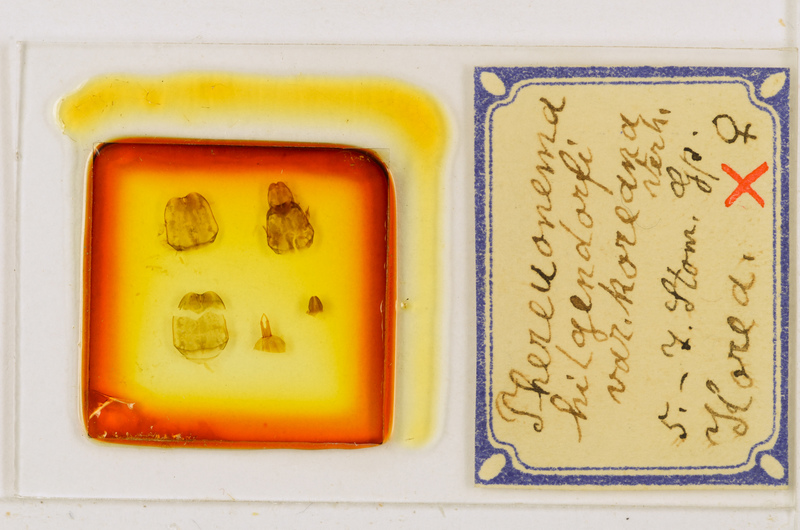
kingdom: Animalia
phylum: Arthropoda
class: Chilopoda
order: Scutigeromorpha
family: Scutigeridae
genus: Thereuonema
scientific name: Thereuonema tuberculata
